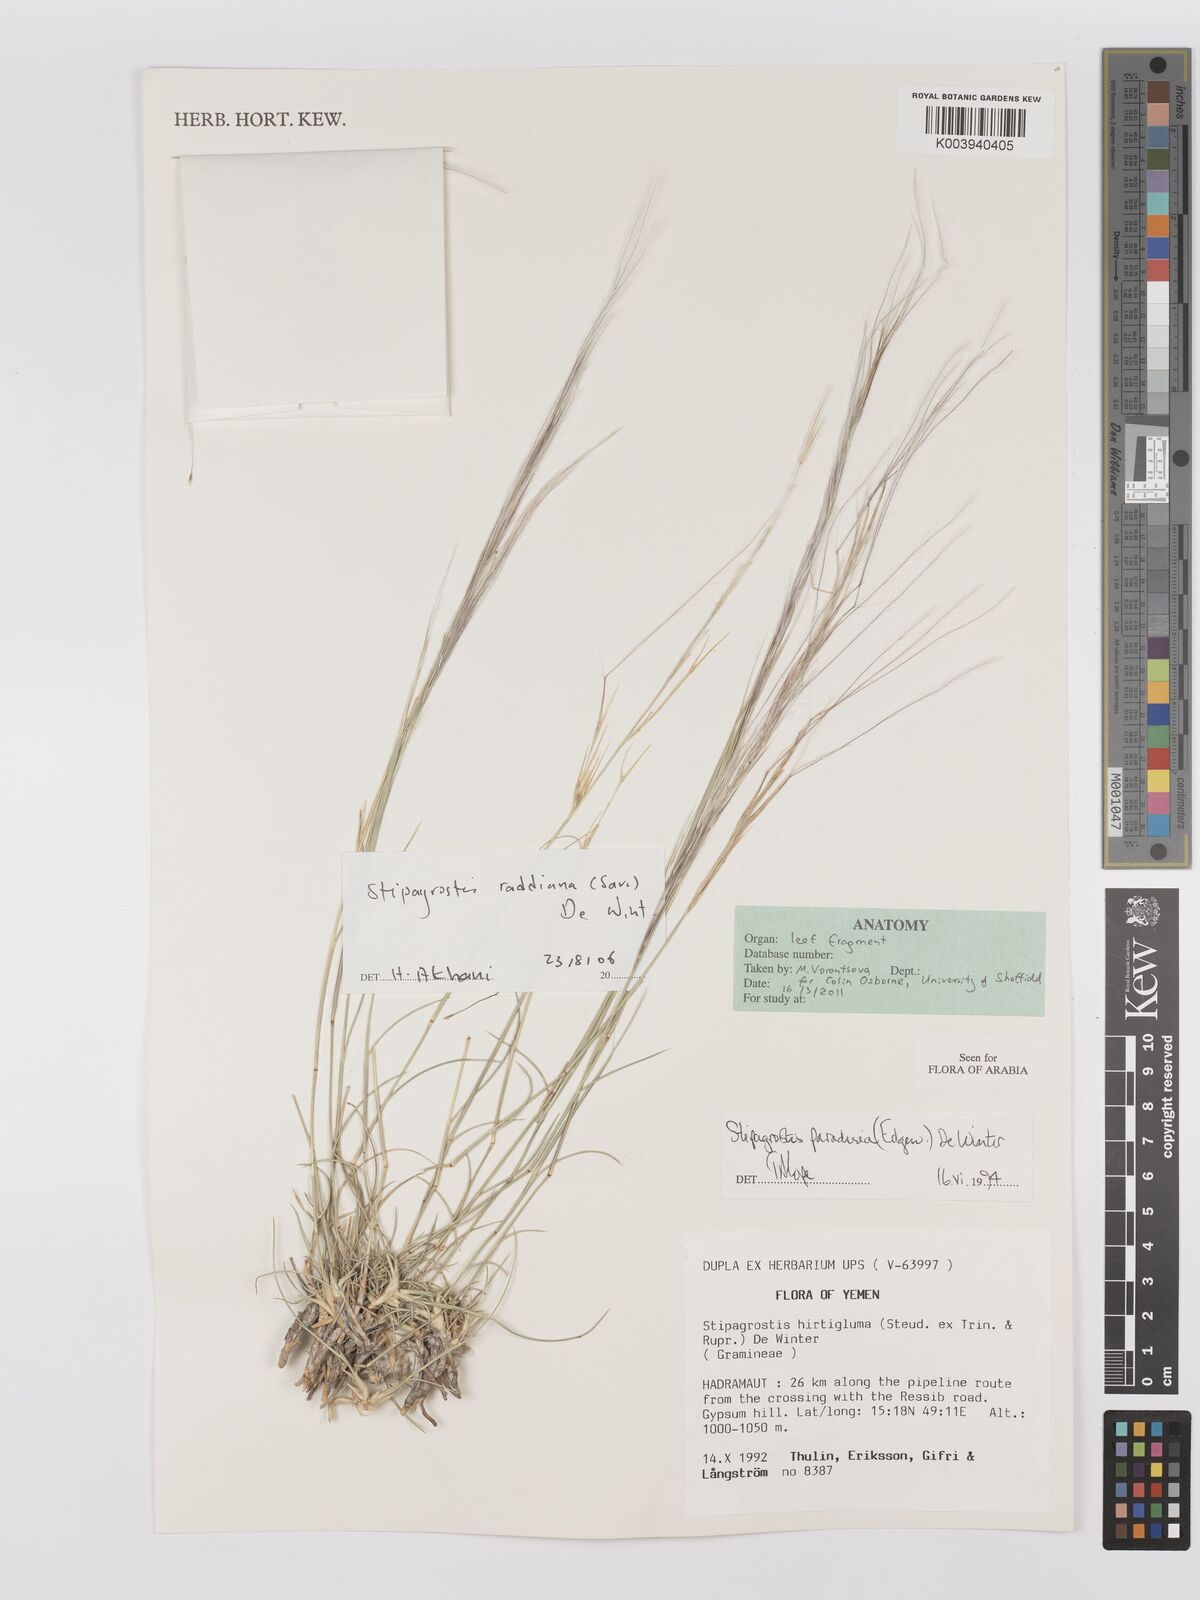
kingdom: Plantae
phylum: Tracheophyta
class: Liliopsida
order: Poales
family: Poaceae
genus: Stipagrostis
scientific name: Stipagrostis paradisea
